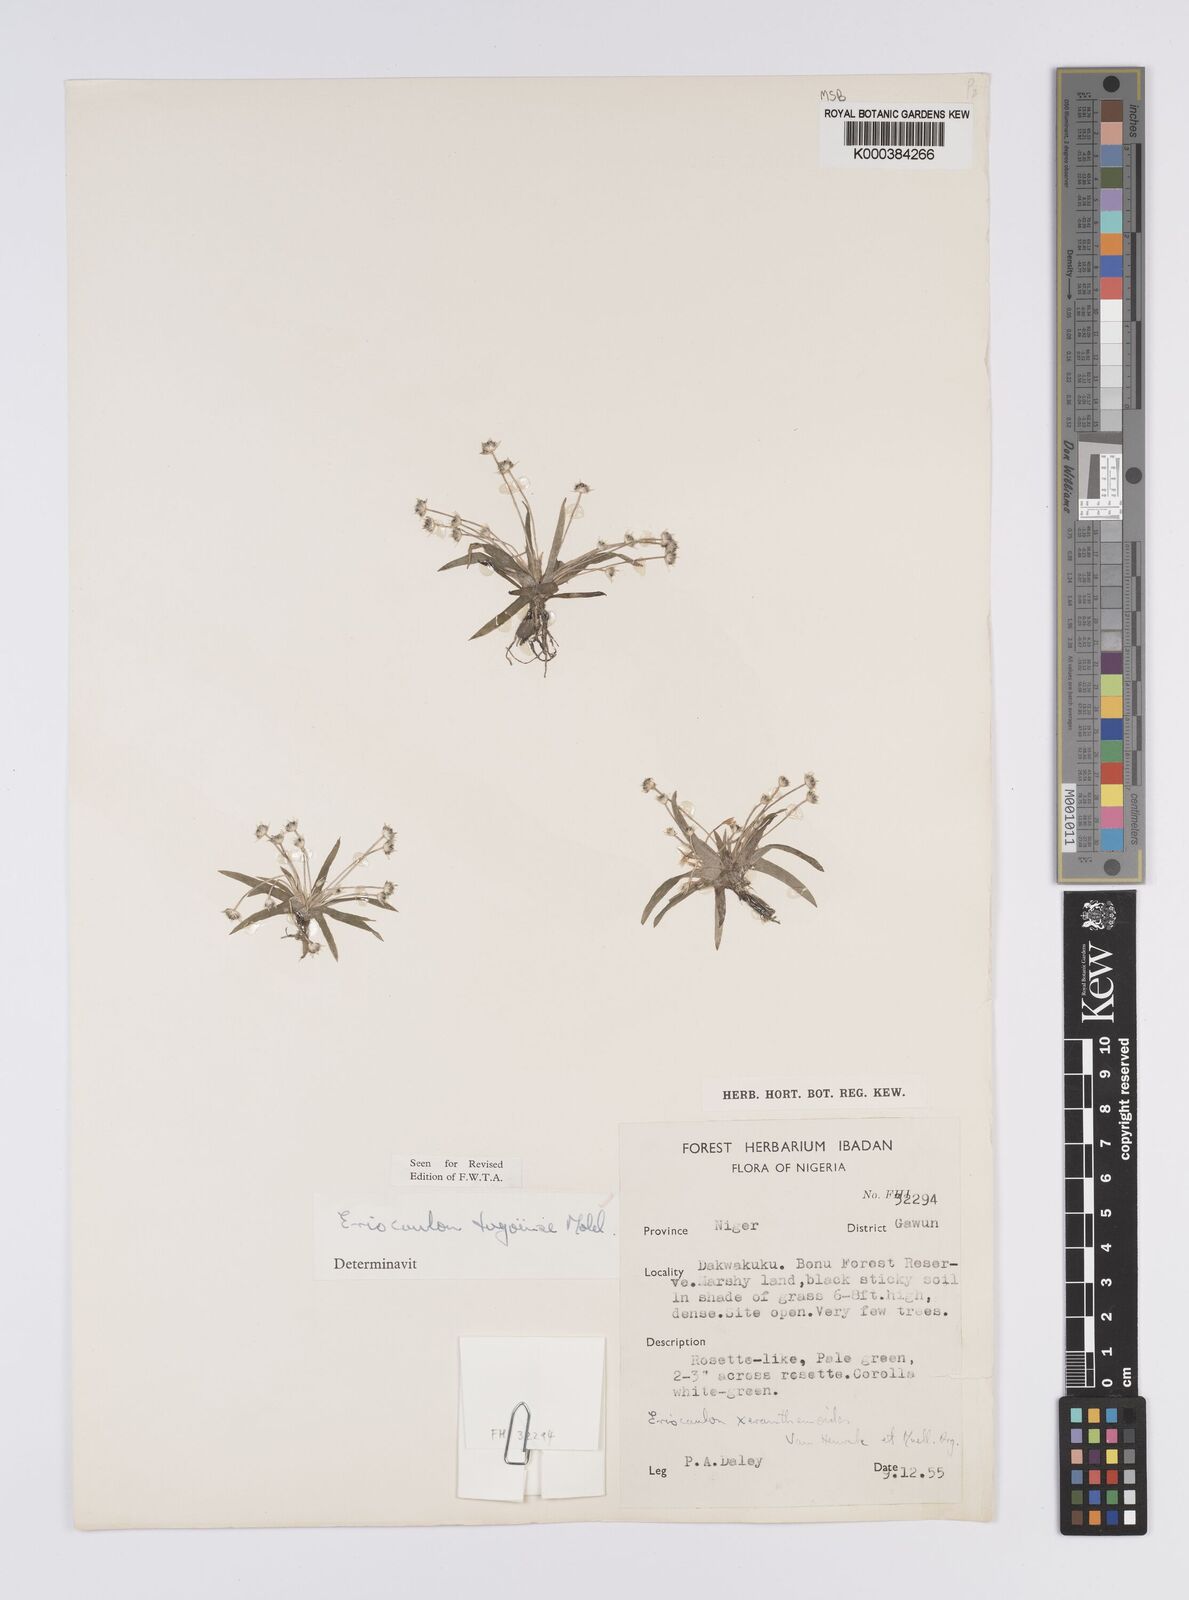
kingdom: Plantae
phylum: Tracheophyta
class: Liliopsida
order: Poales
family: Eriocaulaceae
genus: Eriocaulon
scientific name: Eriocaulon togoense
